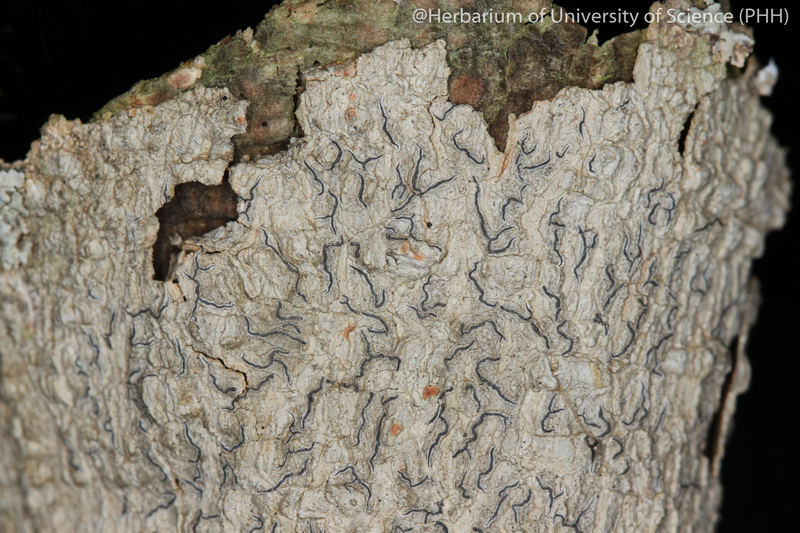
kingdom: Fungi
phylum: Ascomycota
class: Lecanoromycetes
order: Ostropales
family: Graphidaceae
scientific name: Graphidaceae
